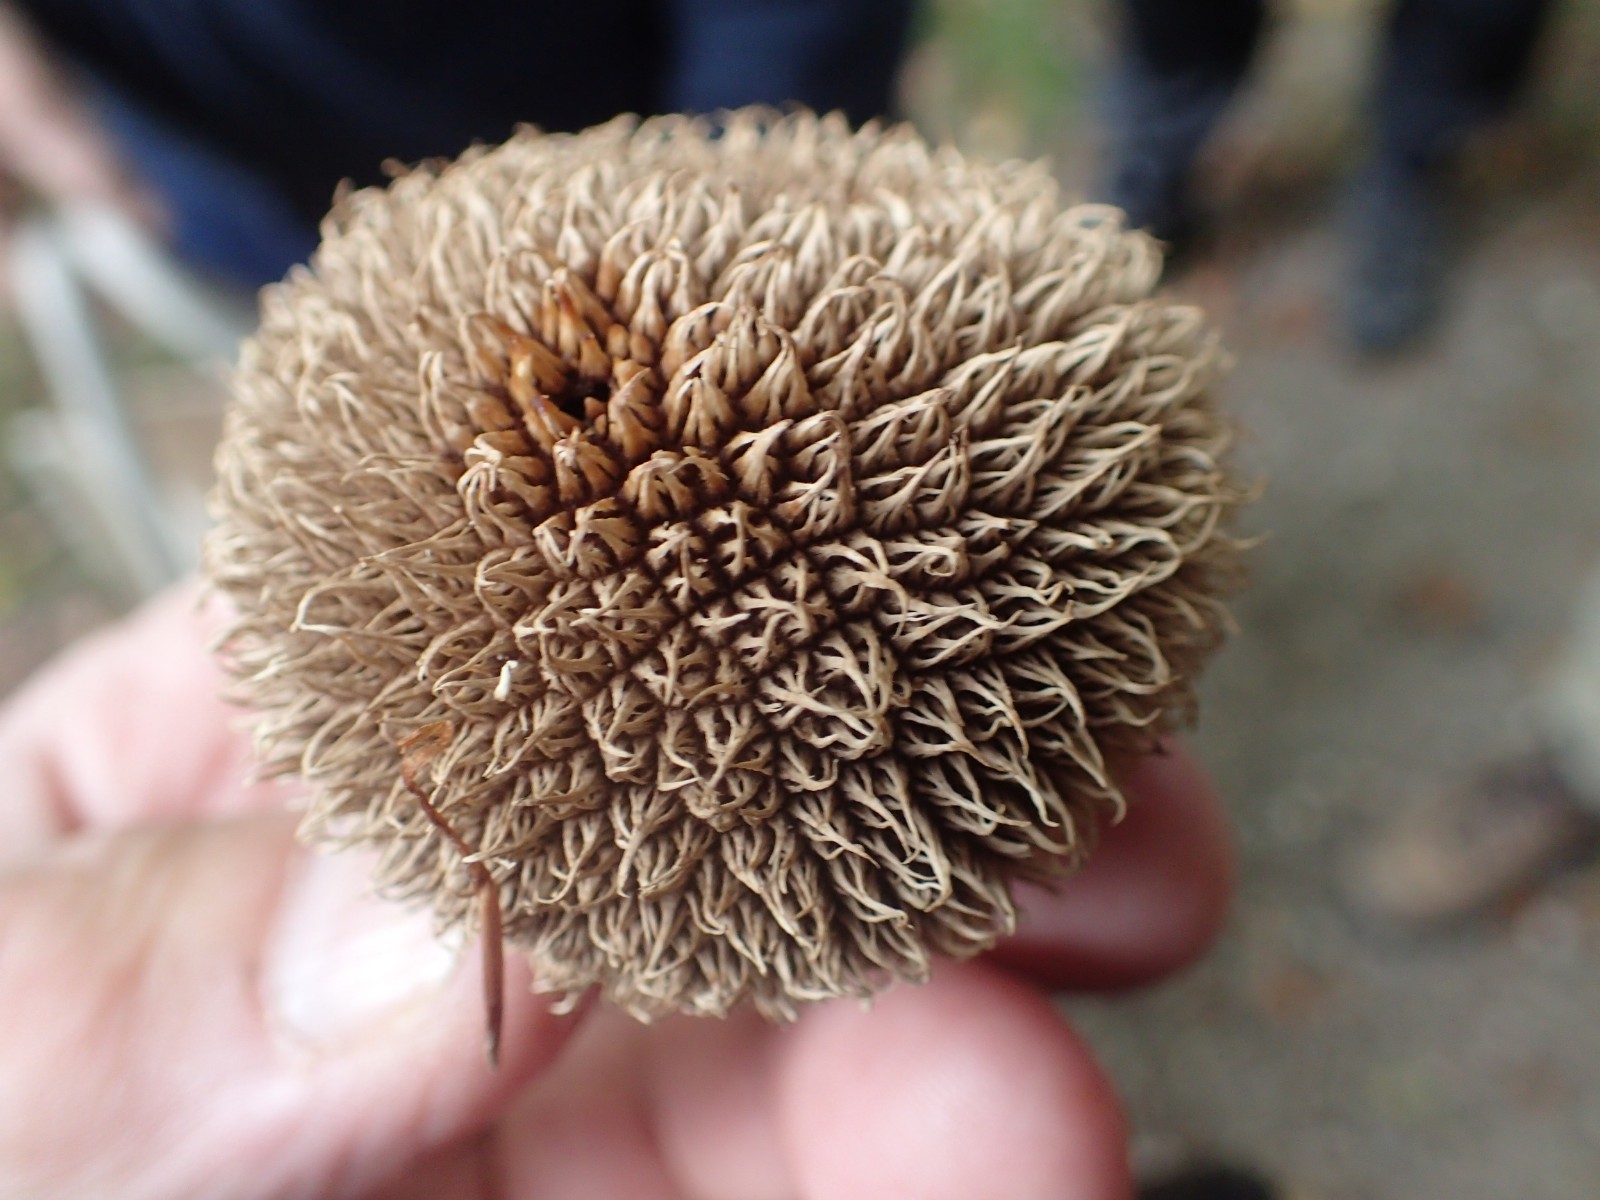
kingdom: Fungi
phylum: Basidiomycota
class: Agaricomycetes
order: Agaricales
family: Lycoperdaceae
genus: Lycoperdon
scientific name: Lycoperdon echinatum
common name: pindsvine-støvbold
